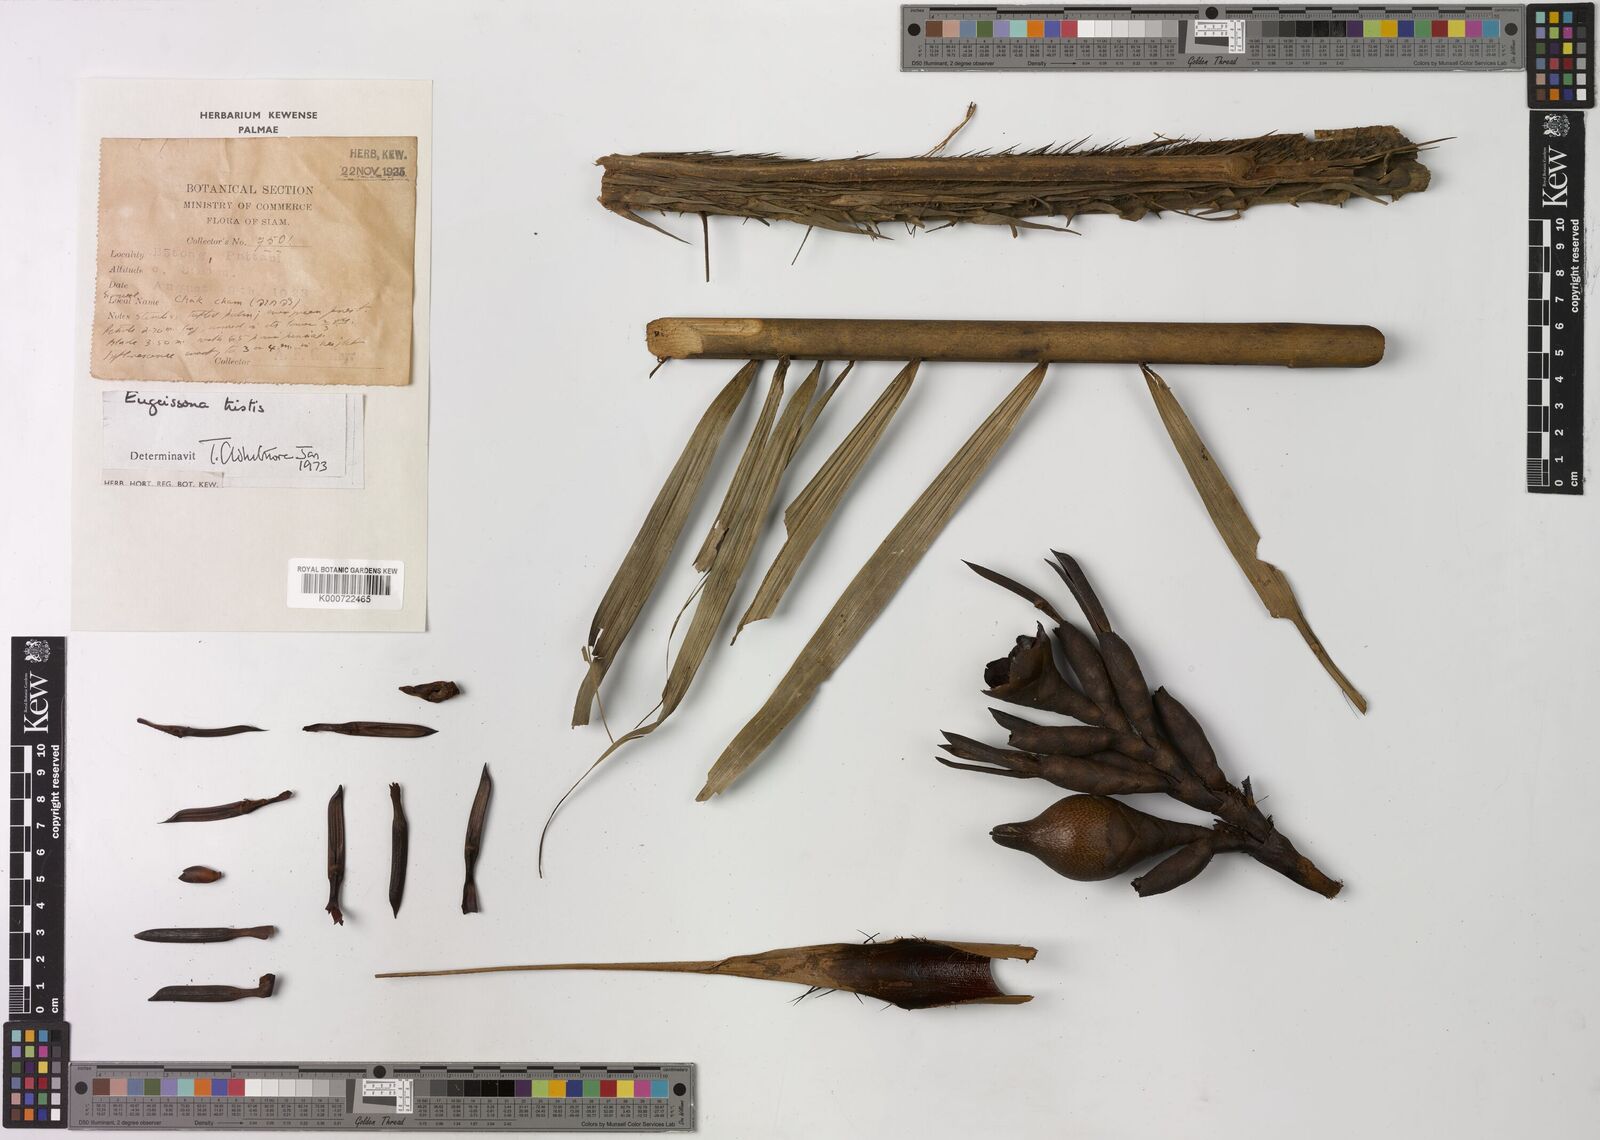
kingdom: Plantae
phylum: Tracheophyta
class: Liliopsida
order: Arecales
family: Arecaceae
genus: Eugeissona
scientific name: Eugeissona tristis
